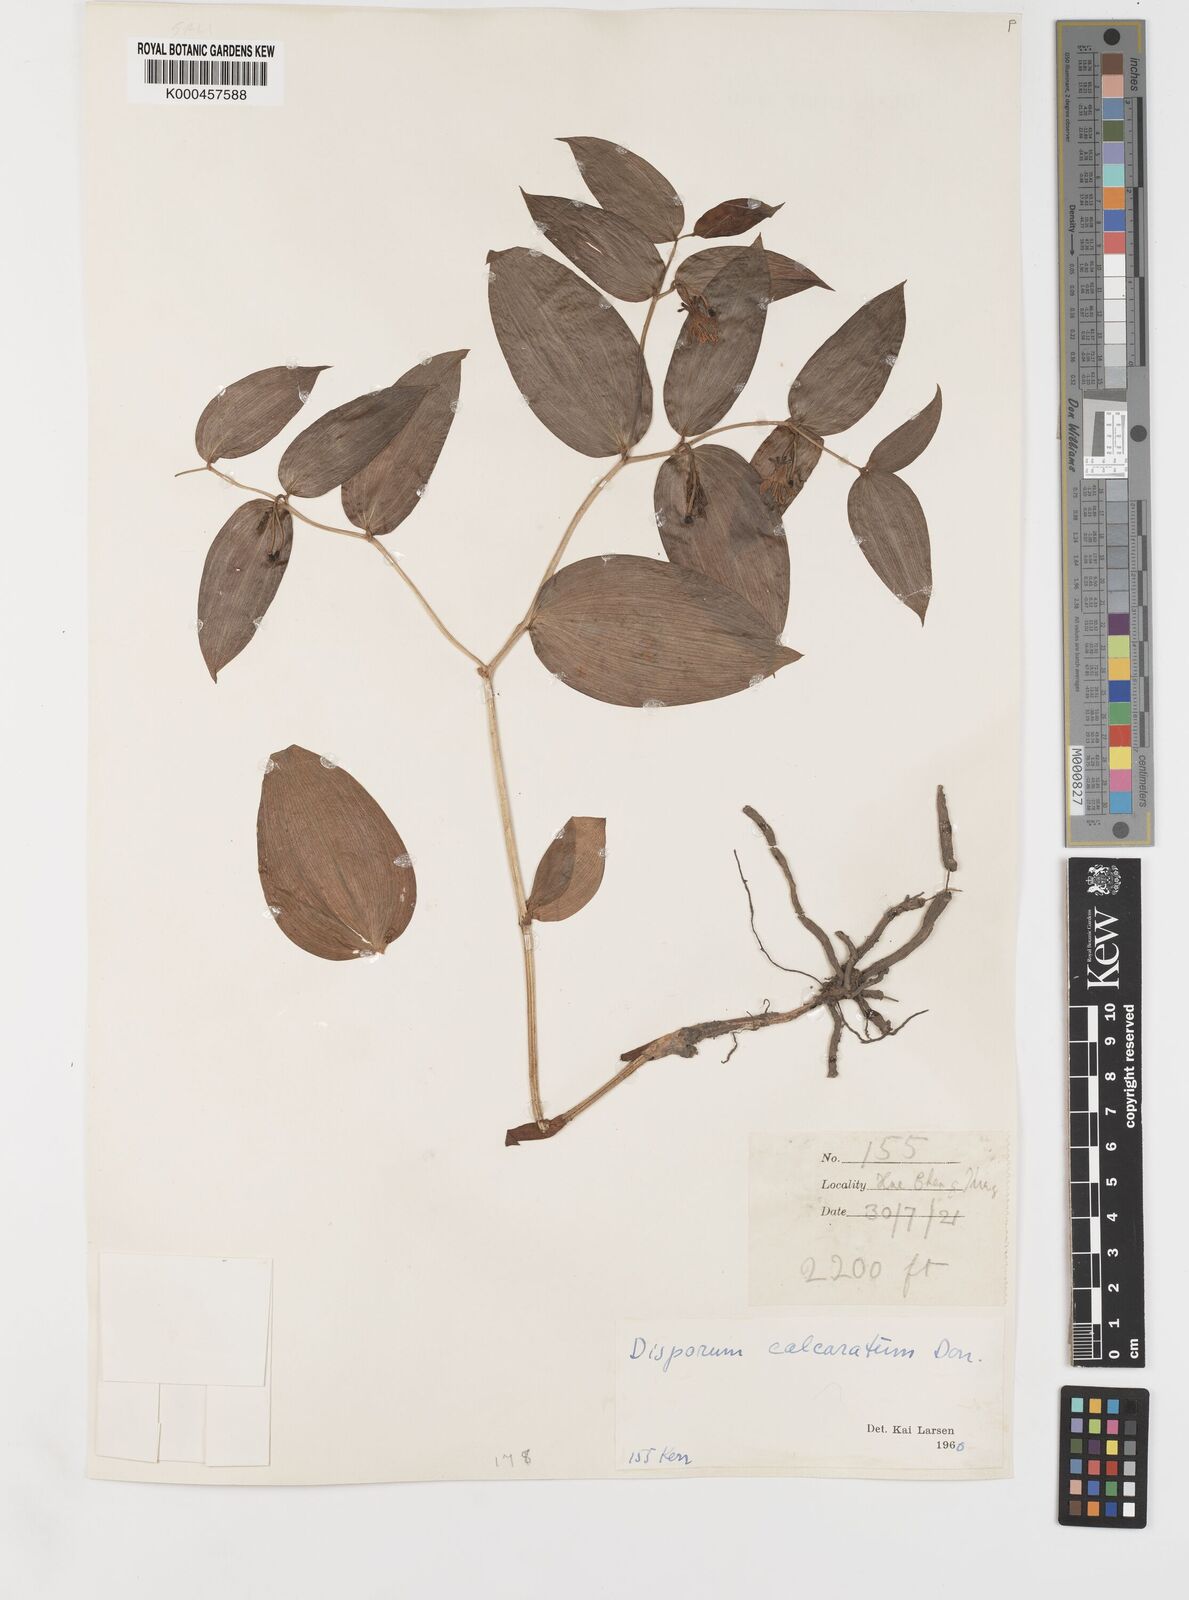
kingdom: Plantae
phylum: Tracheophyta
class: Liliopsida
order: Liliales
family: Colchicaceae
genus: Disporum
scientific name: Disporum calcaratum
